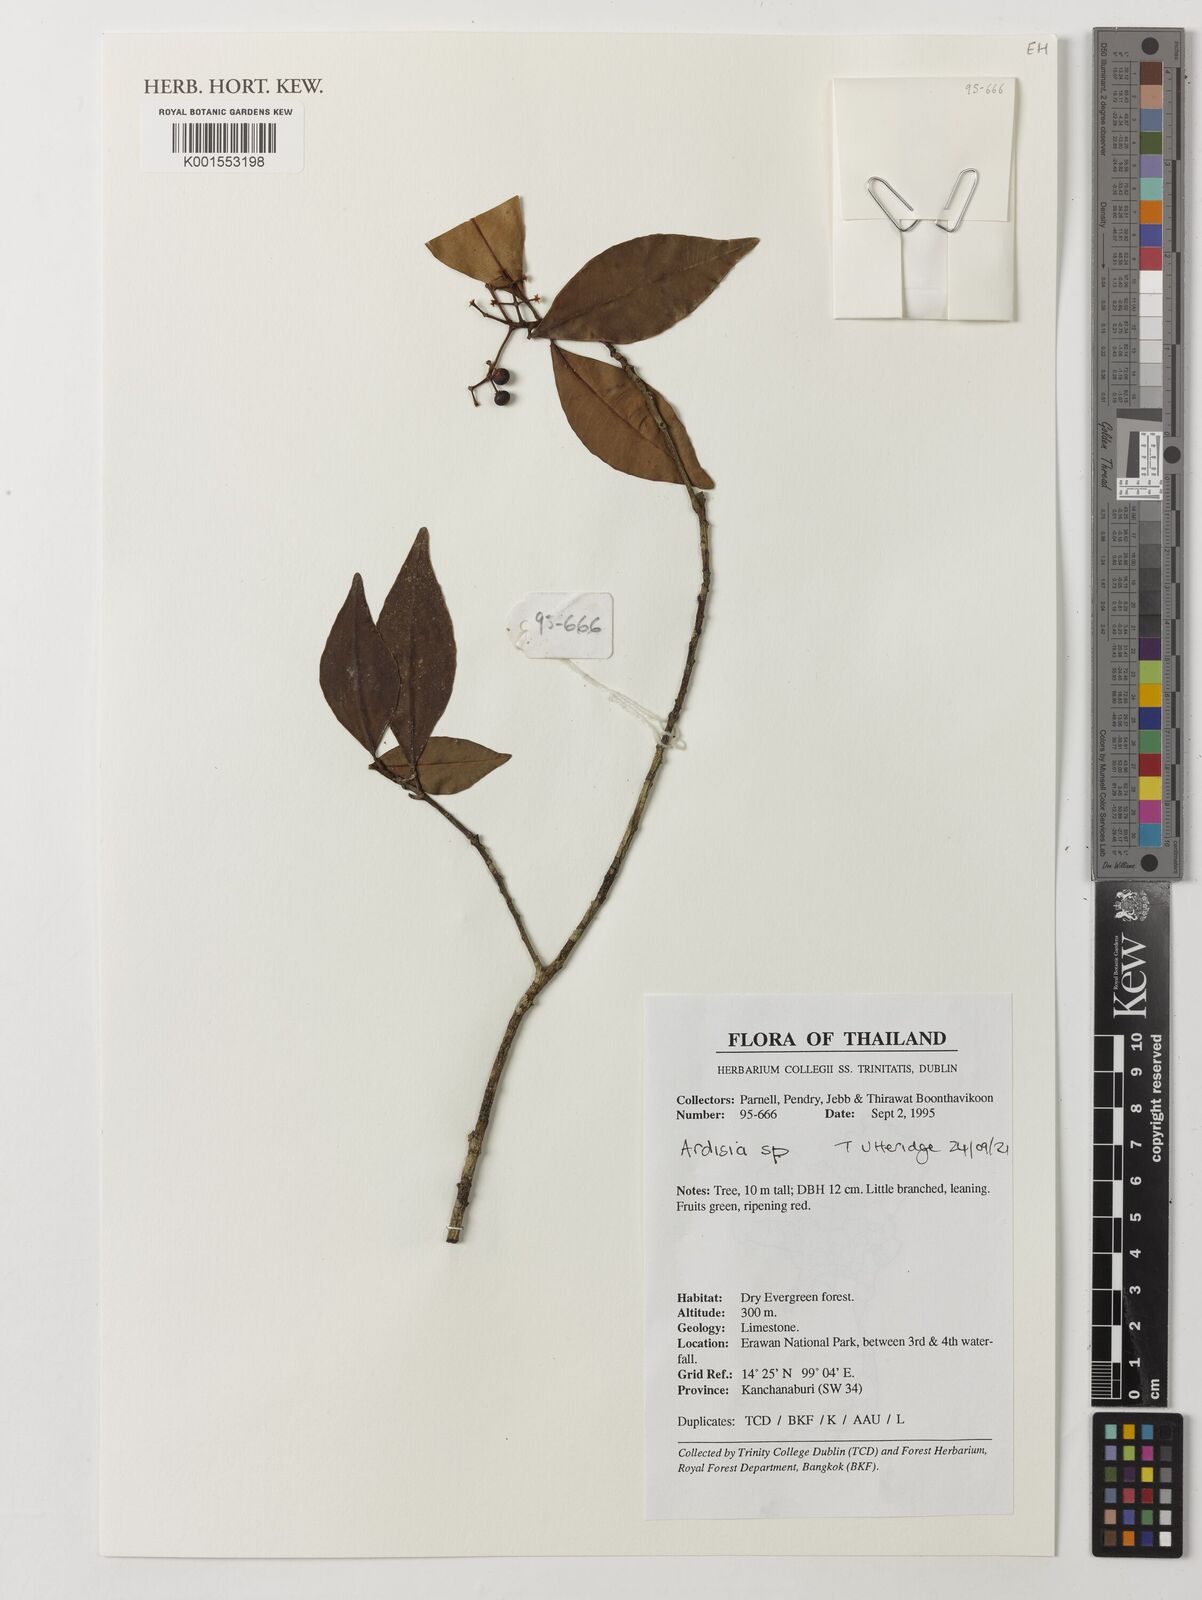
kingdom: Plantae
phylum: Tracheophyta
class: Magnoliopsida
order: Ericales
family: Primulaceae
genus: Ardisia
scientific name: Ardisia
